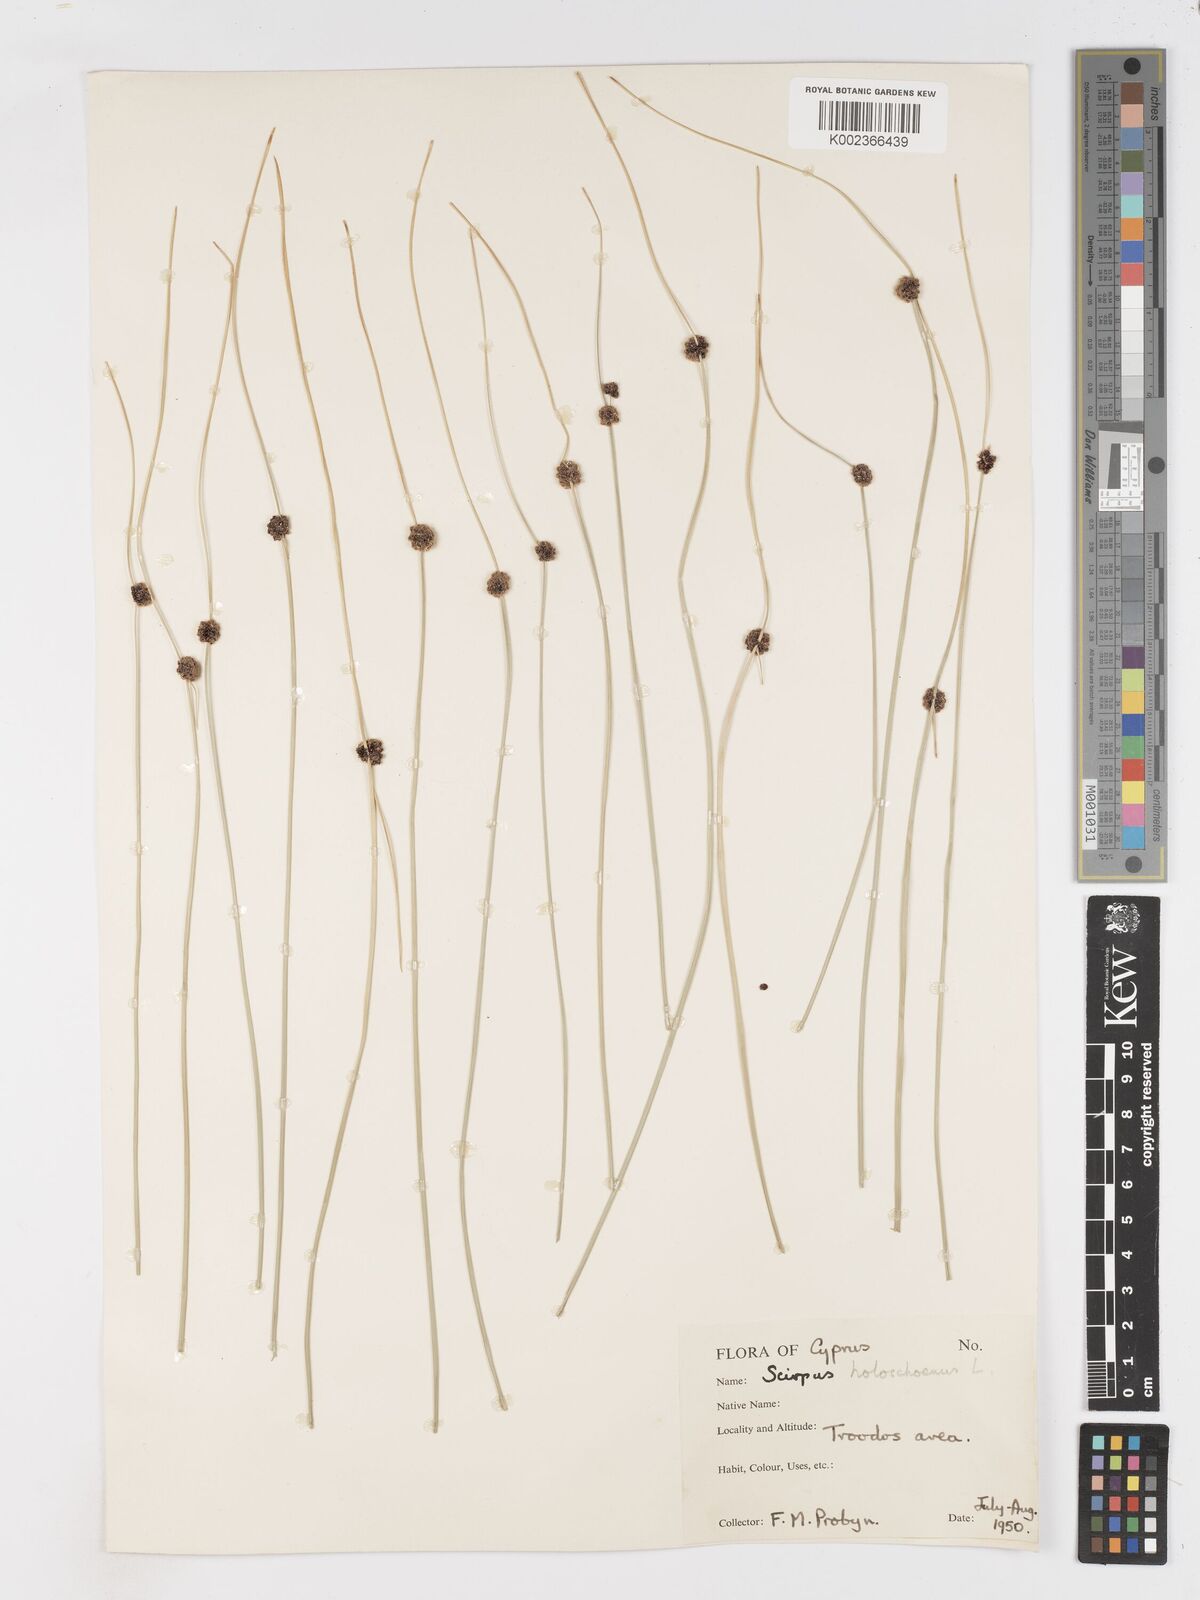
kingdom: Plantae
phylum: Tracheophyta
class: Liliopsida
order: Poales
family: Cyperaceae
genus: Scirpoides
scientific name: Scirpoides holoschoenus
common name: Round-headed club-rush
